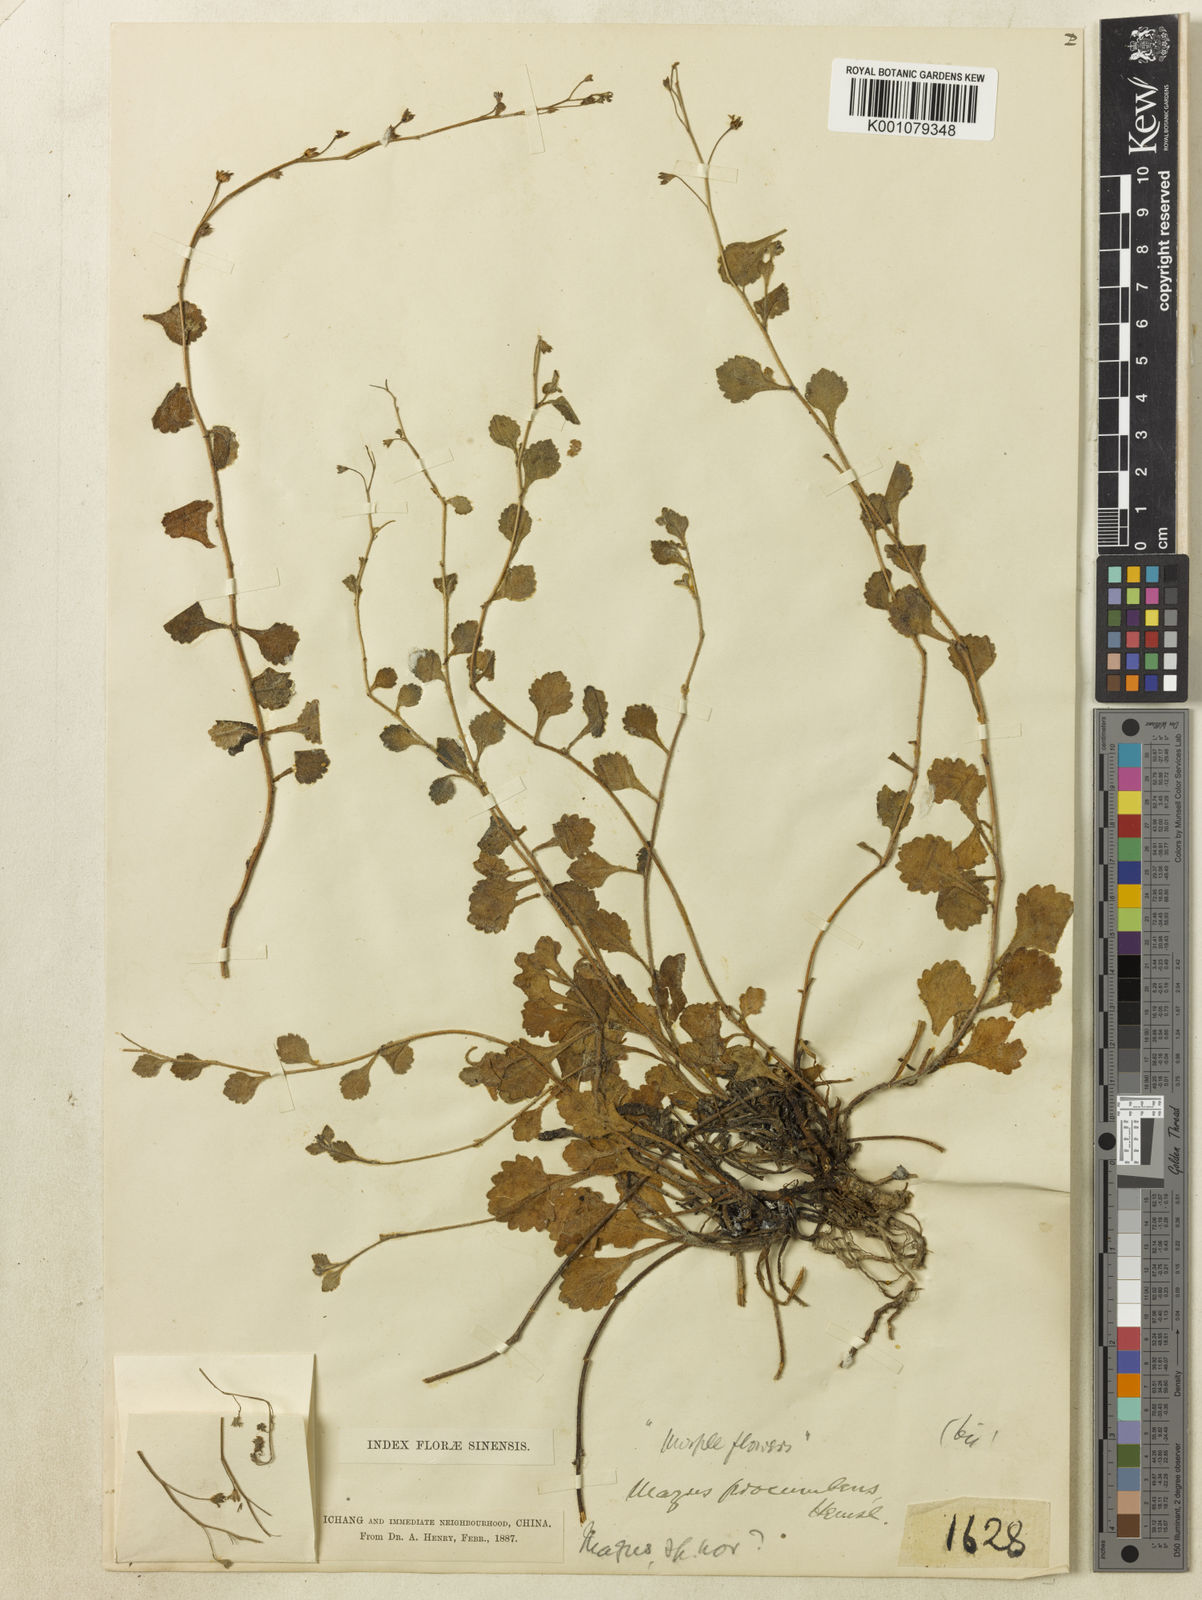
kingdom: Plantae
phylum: Tracheophyta
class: Magnoliopsida
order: Lamiales
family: Mazaceae
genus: Mazus
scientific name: Mazus procumbens
